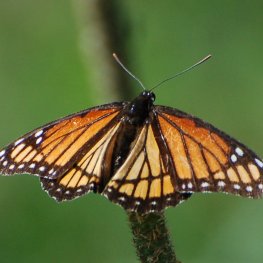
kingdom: Animalia
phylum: Arthropoda
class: Insecta
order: Lepidoptera
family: Nymphalidae
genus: Limenitis
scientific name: Limenitis archippus
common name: Viceroy
